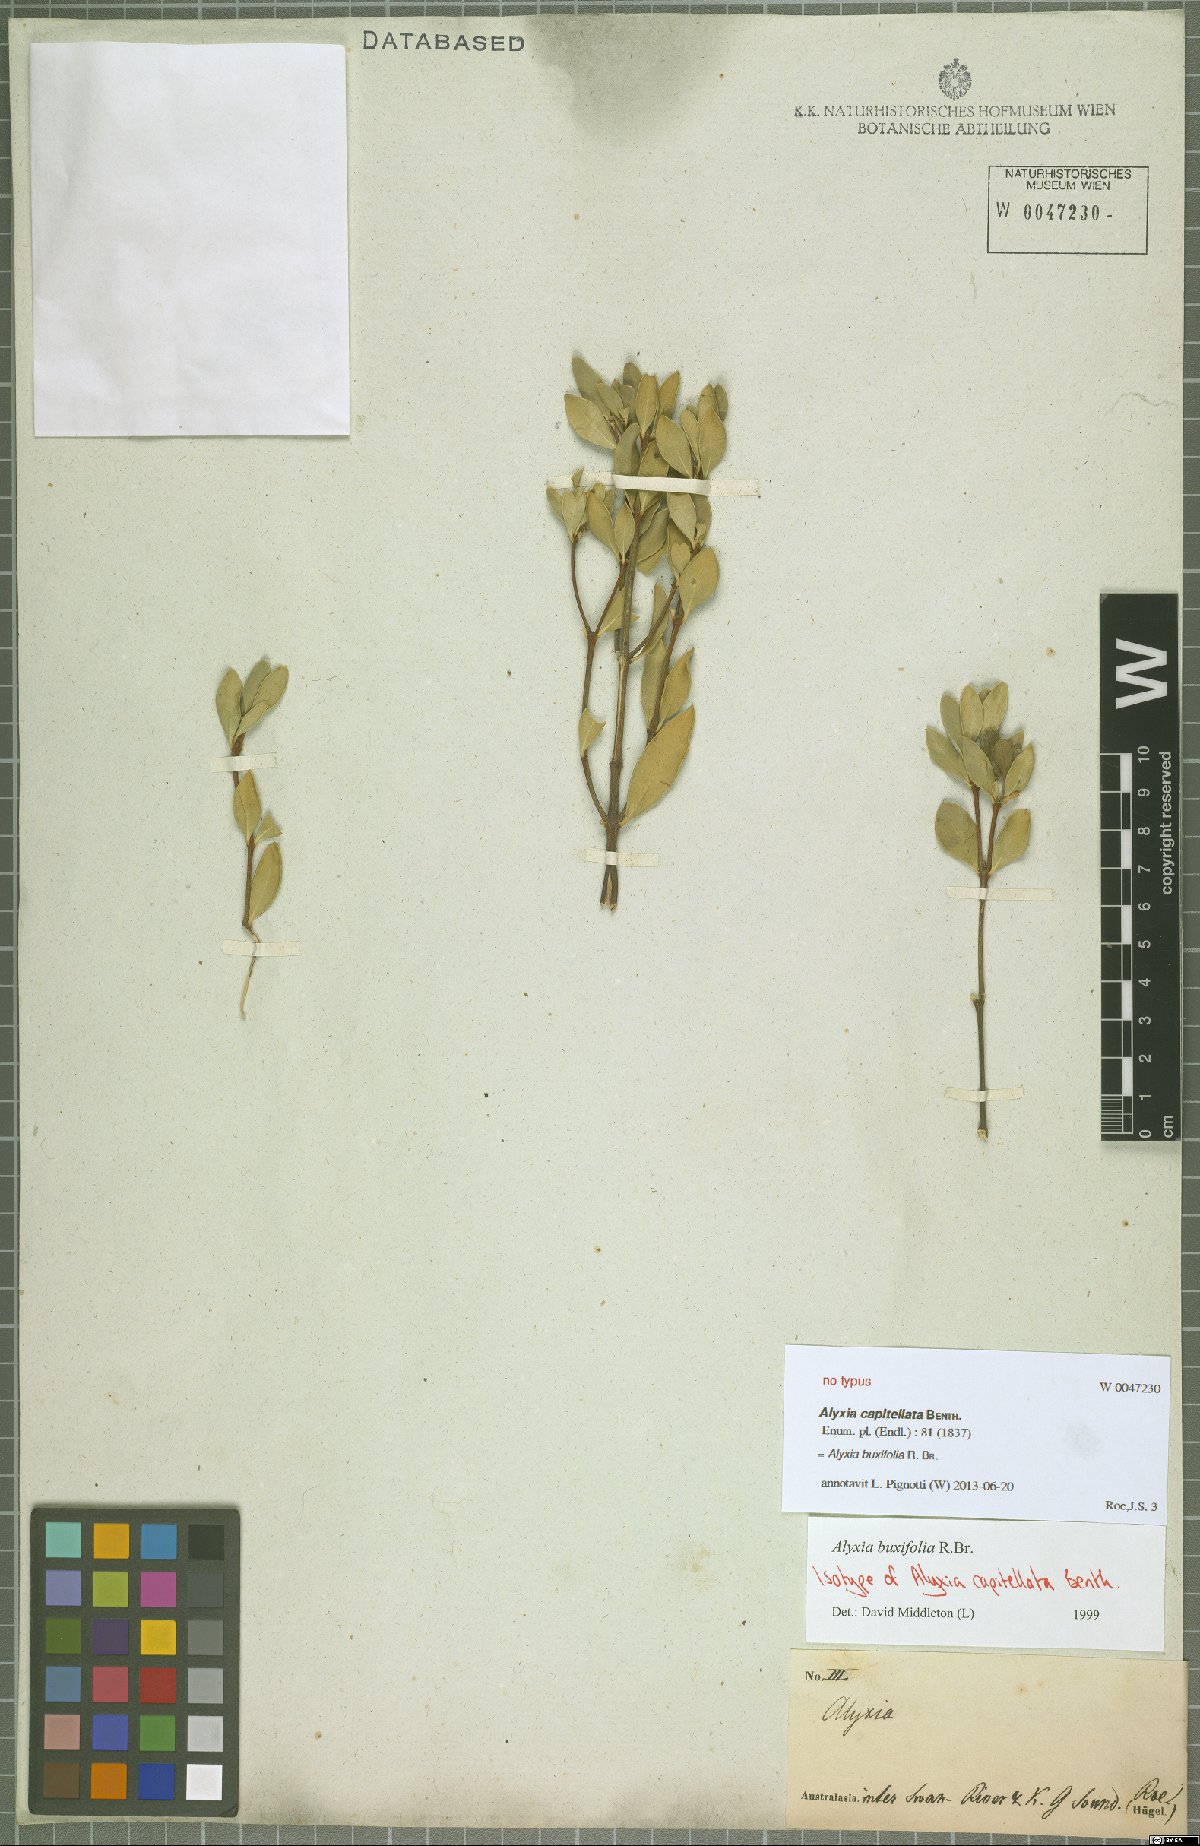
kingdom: Plantae
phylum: Tracheophyta
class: Magnoliopsida
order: Gentianales
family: Apocynaceae
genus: Alyxia
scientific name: Alyxia buxifolia
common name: Dysentery-bush
